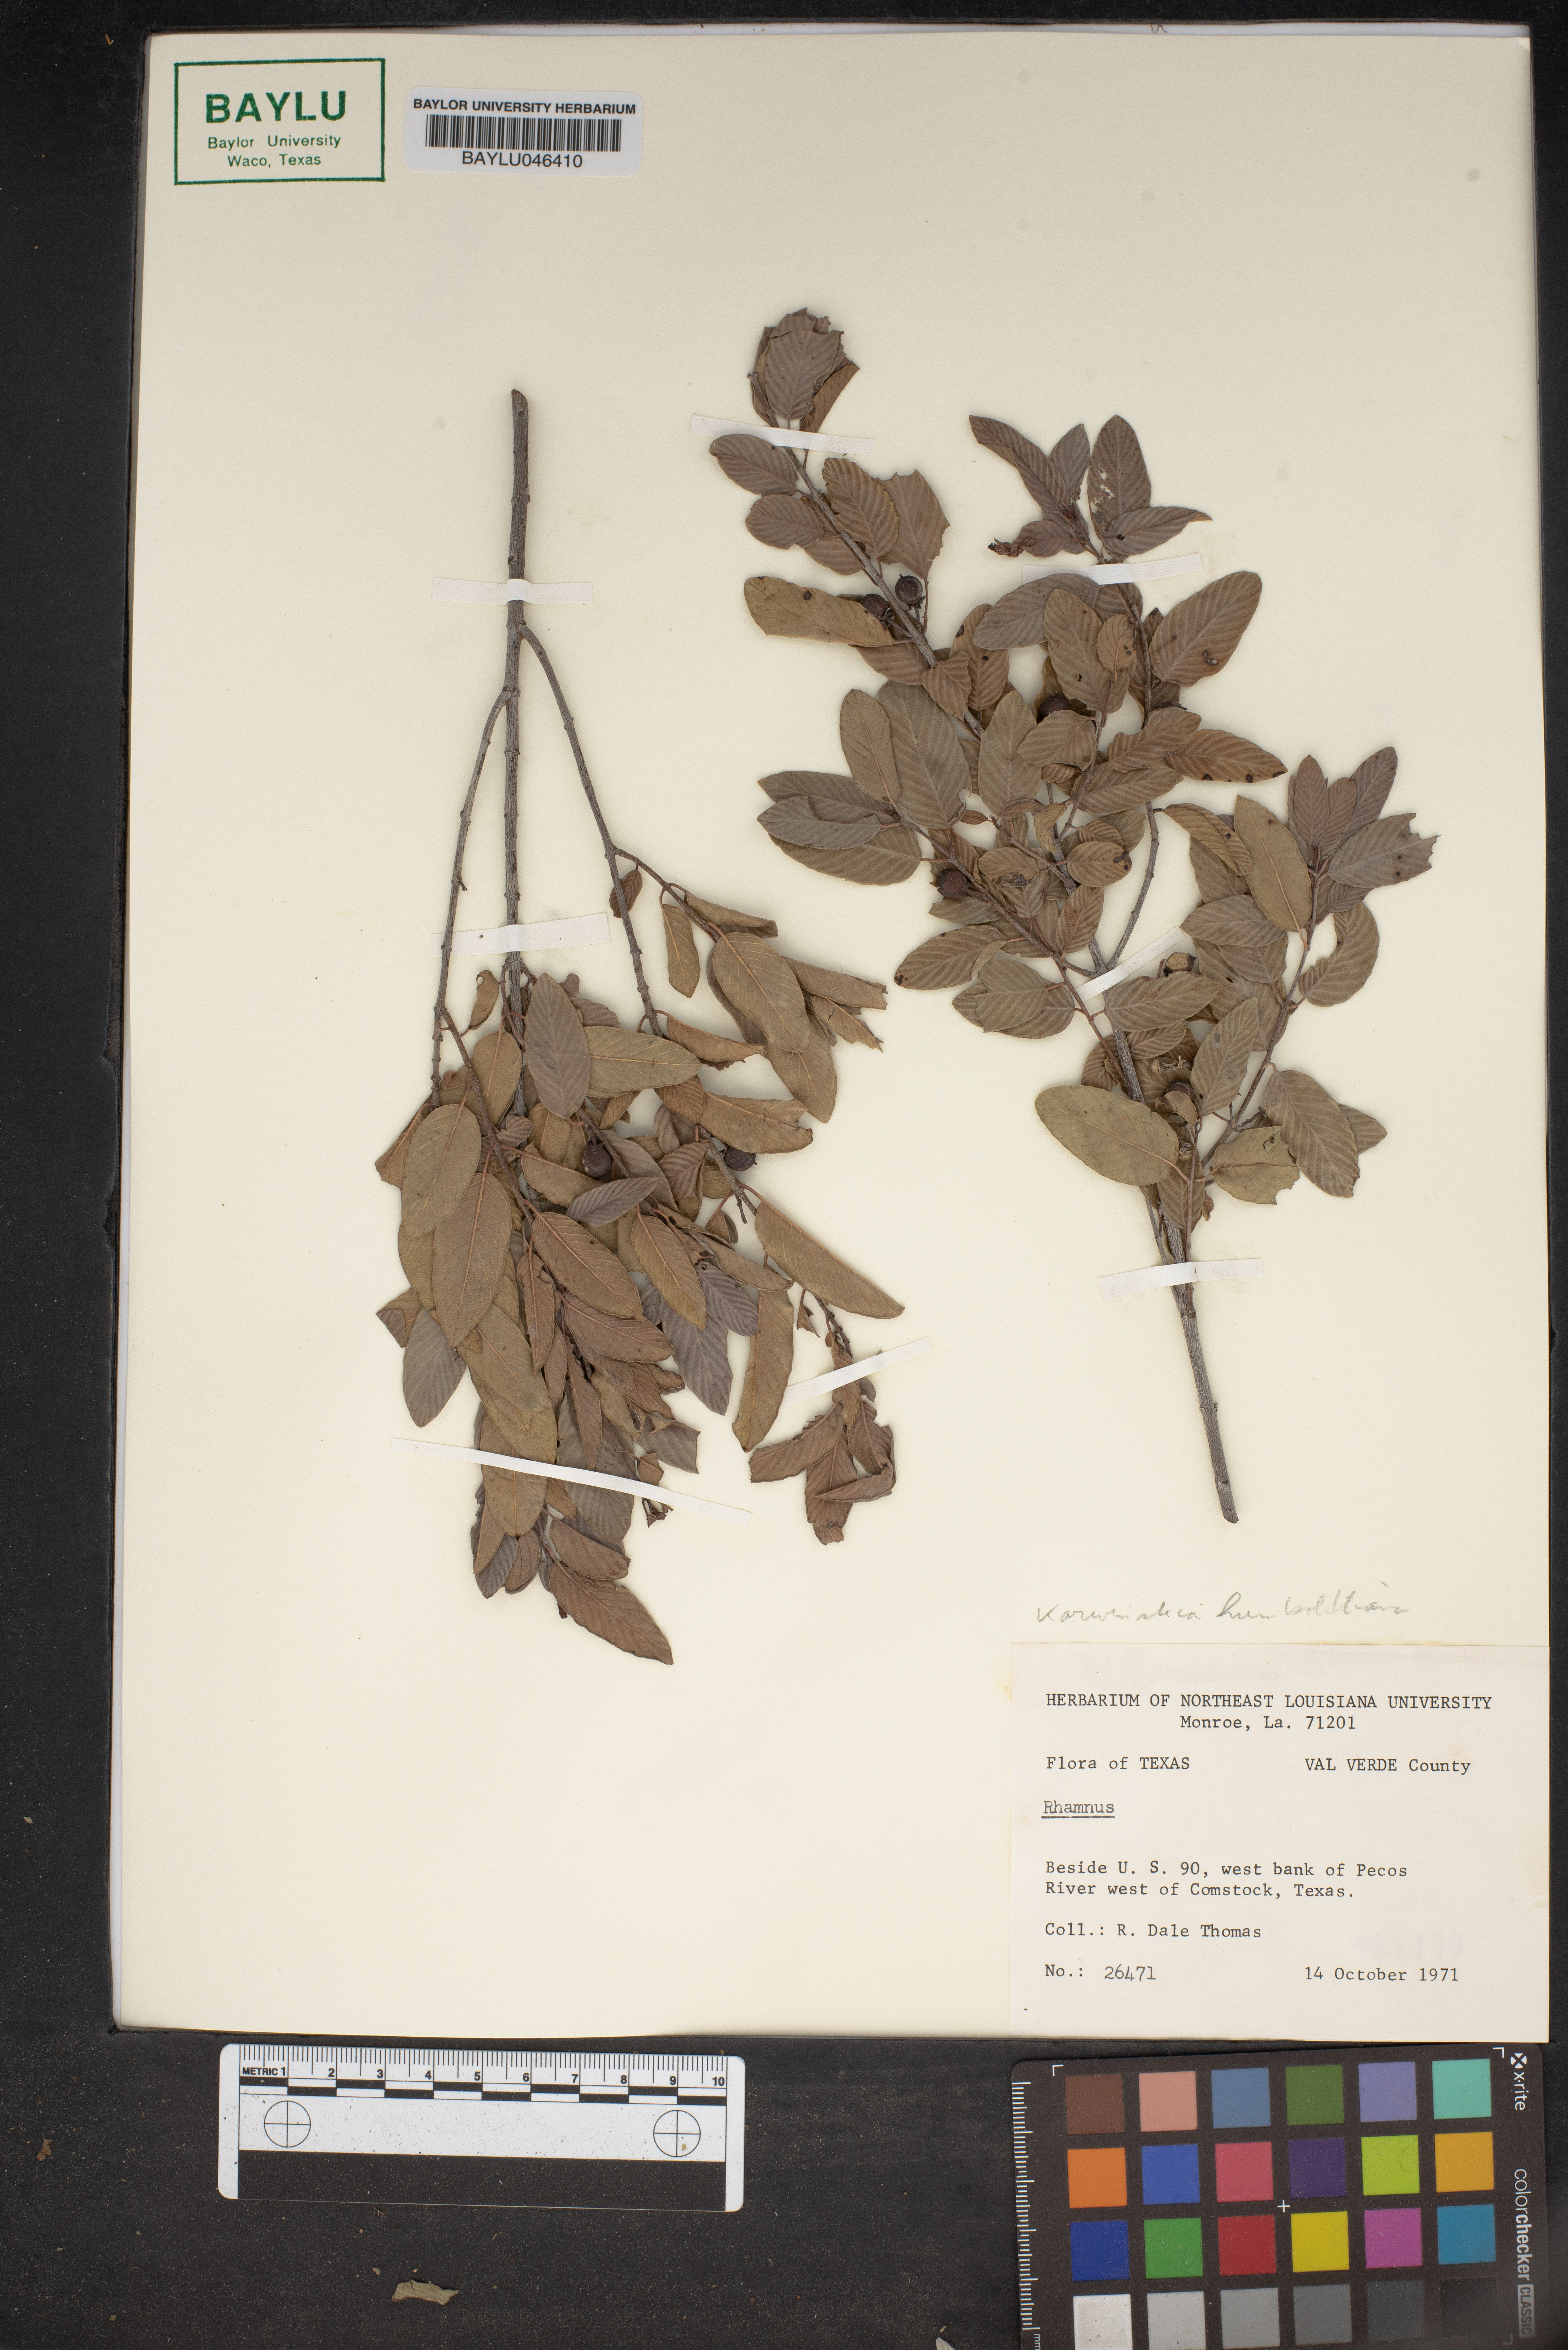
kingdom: Plantae
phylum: Tracheophyta
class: Magnoliopsida
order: Rosales
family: Rhamnaceae
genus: Rhamnus
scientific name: Rhamnus
